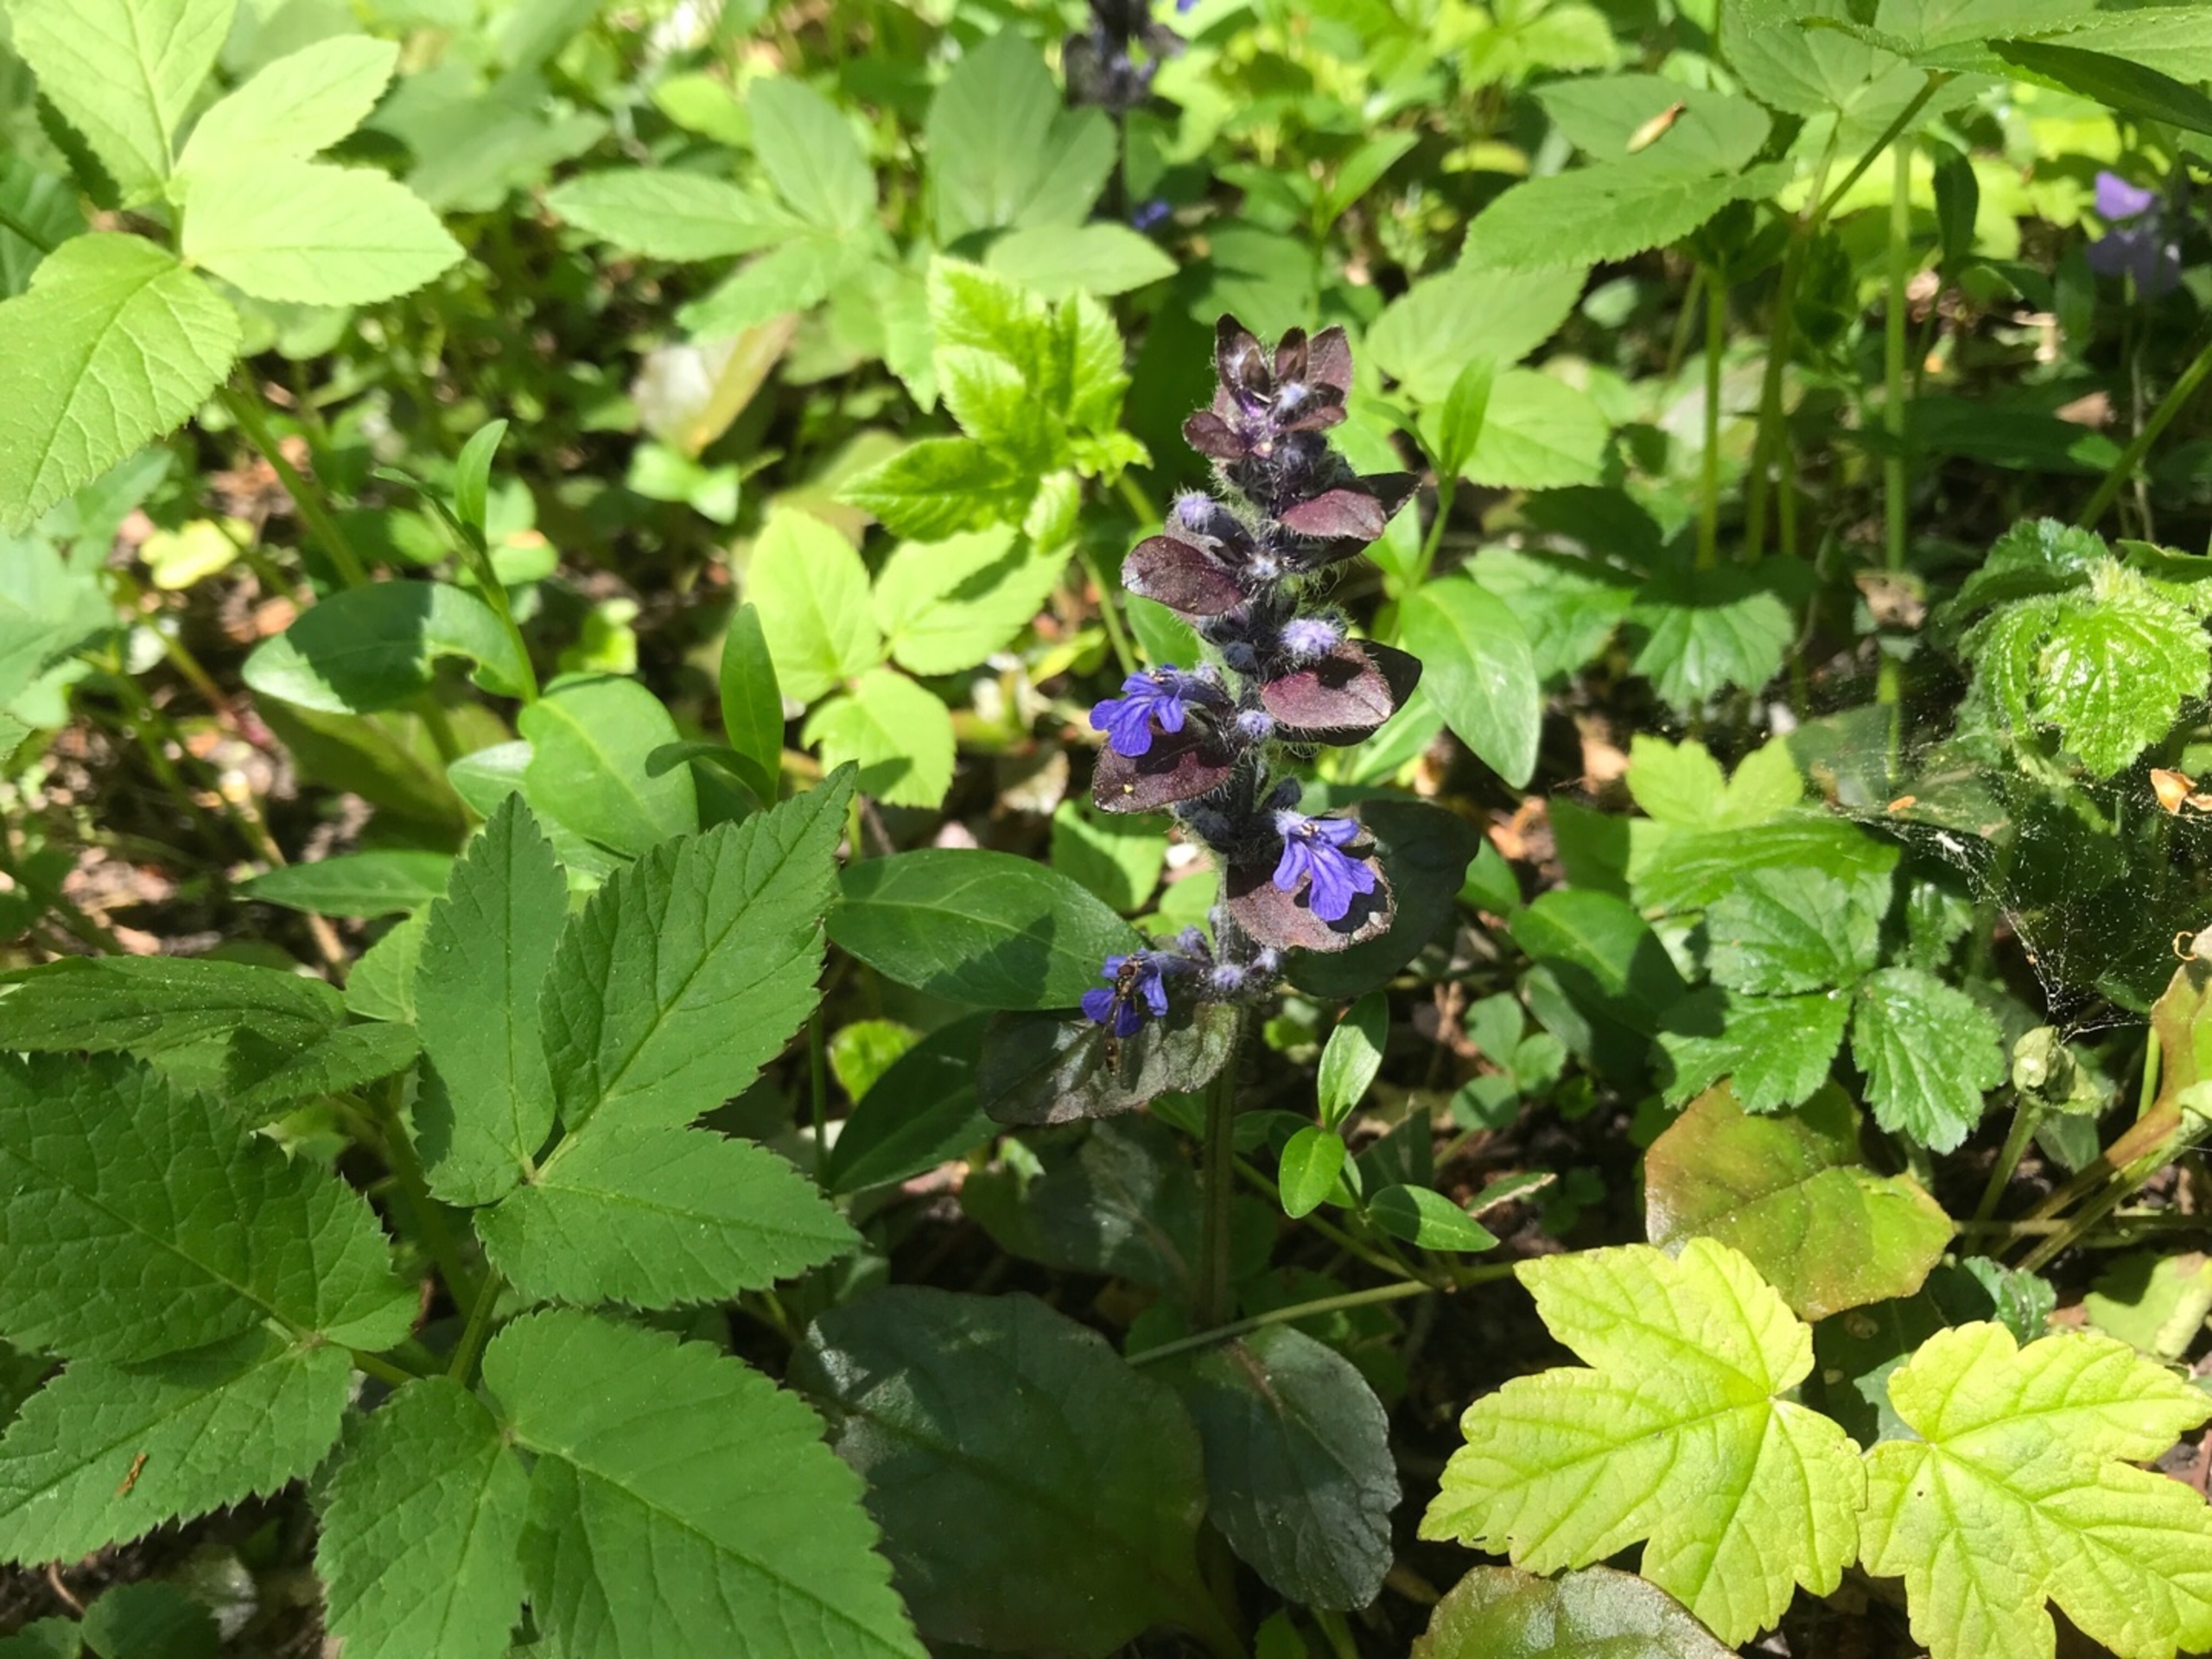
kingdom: Plantae
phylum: Tracheophyta
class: Magnoliopsida
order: Lamiales
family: Lamiaceae
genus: Ajuga
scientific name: Ajuga reptans
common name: Krybende læbeløs
